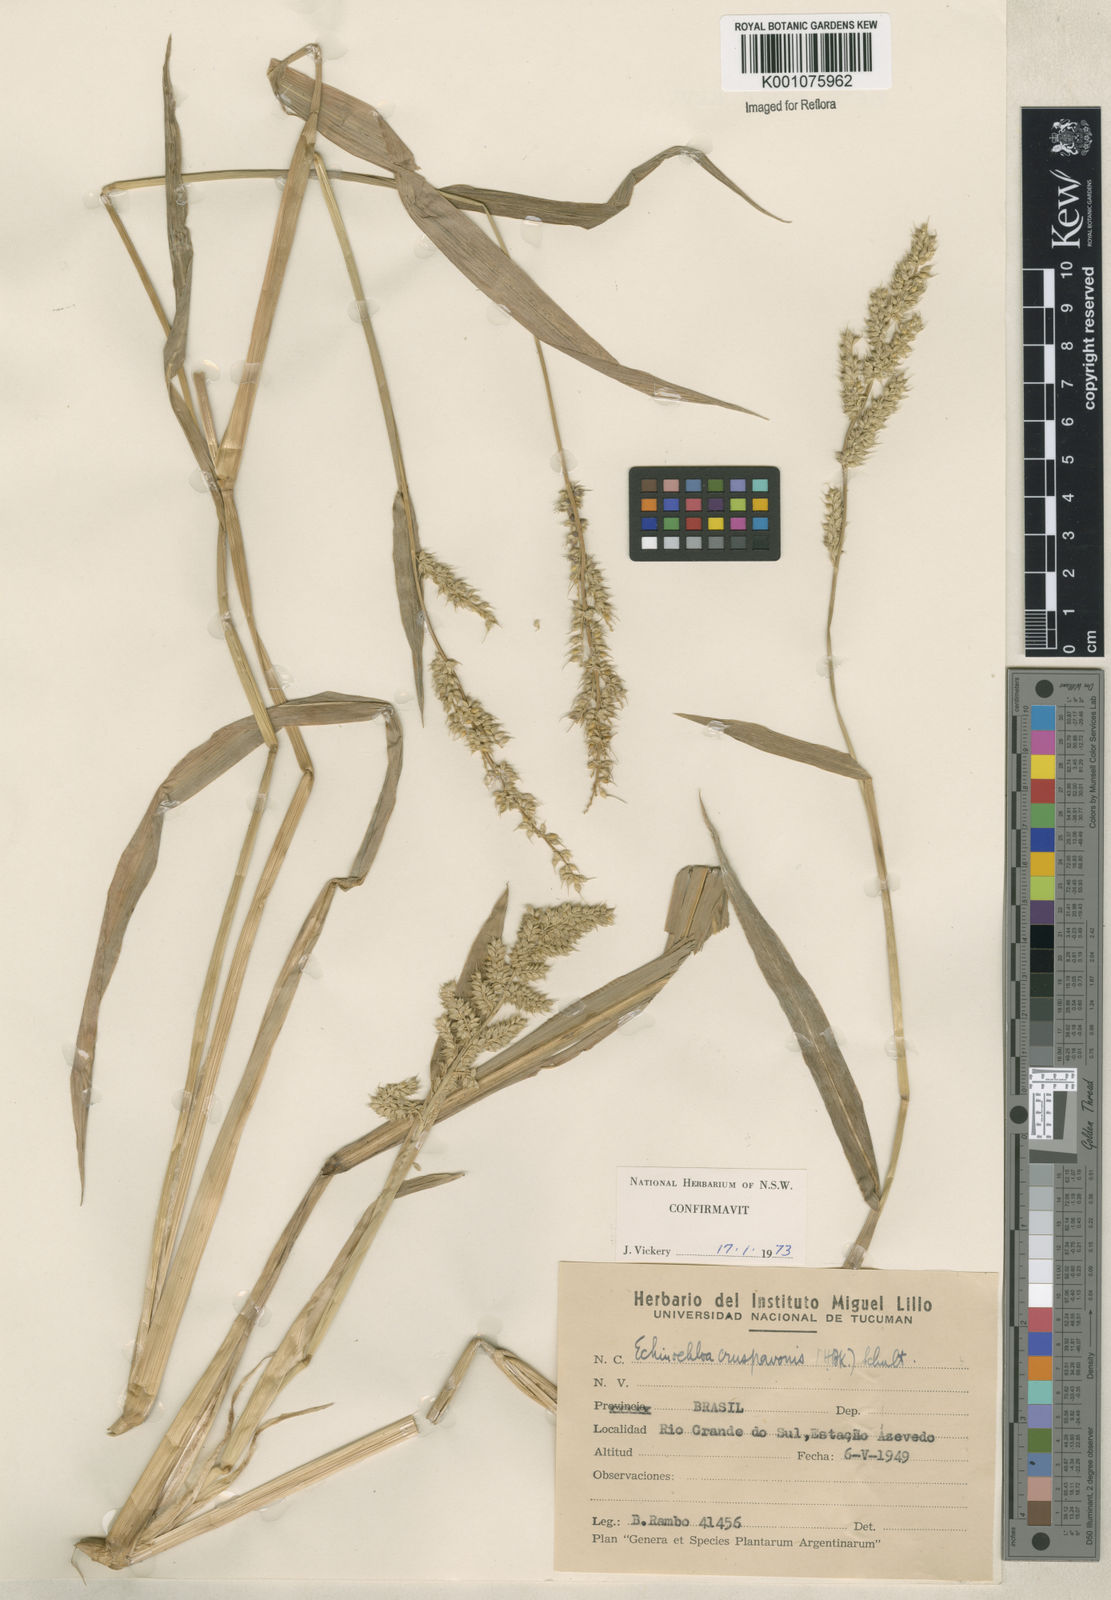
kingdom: Plantae
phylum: Tracheophyta
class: Liliopsida
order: Poales
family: Poaceae
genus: Echinochloa
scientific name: Echinochloa crus-pavonis
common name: Gulf cockspur grass
